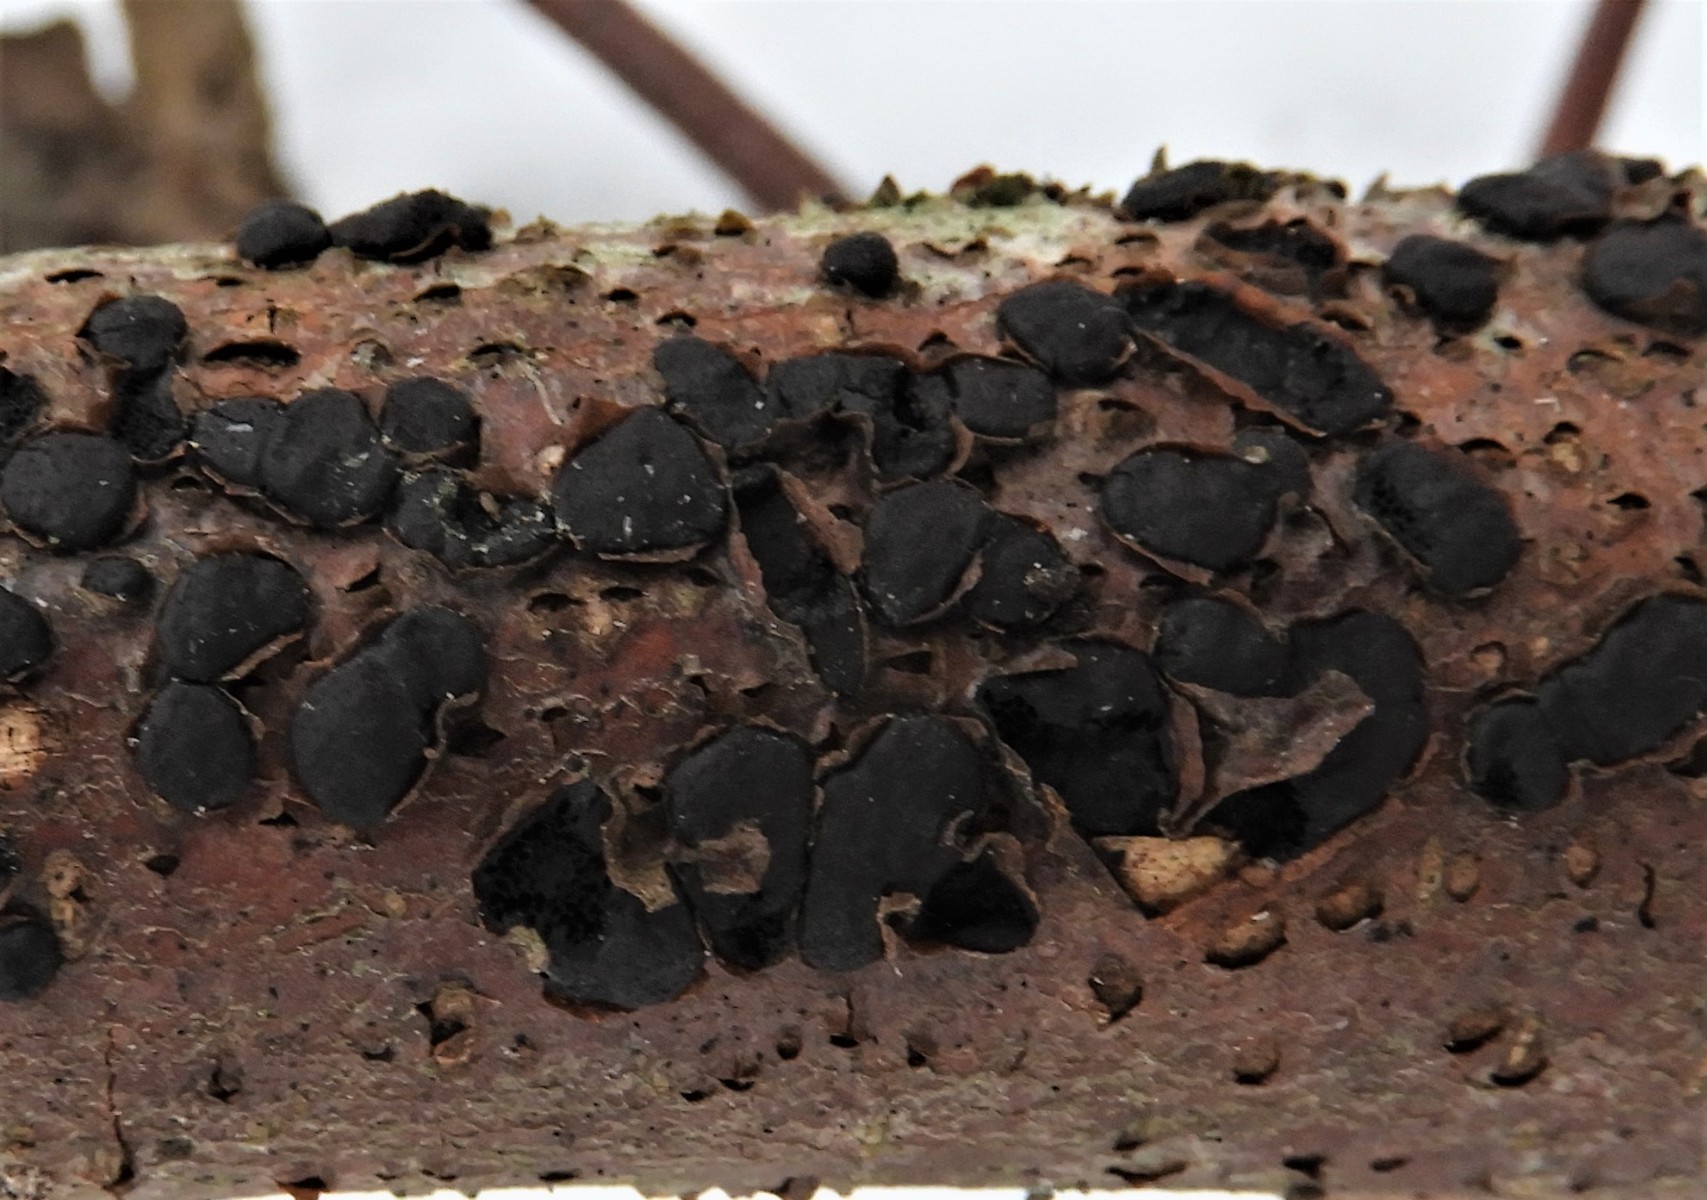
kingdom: Fungi
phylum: Ascomycota
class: Sordariomycetes
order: Xylariales
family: Diatrypaceae
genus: Diatrype
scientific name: Diatrype disciformis
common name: kant-kulskorpe
